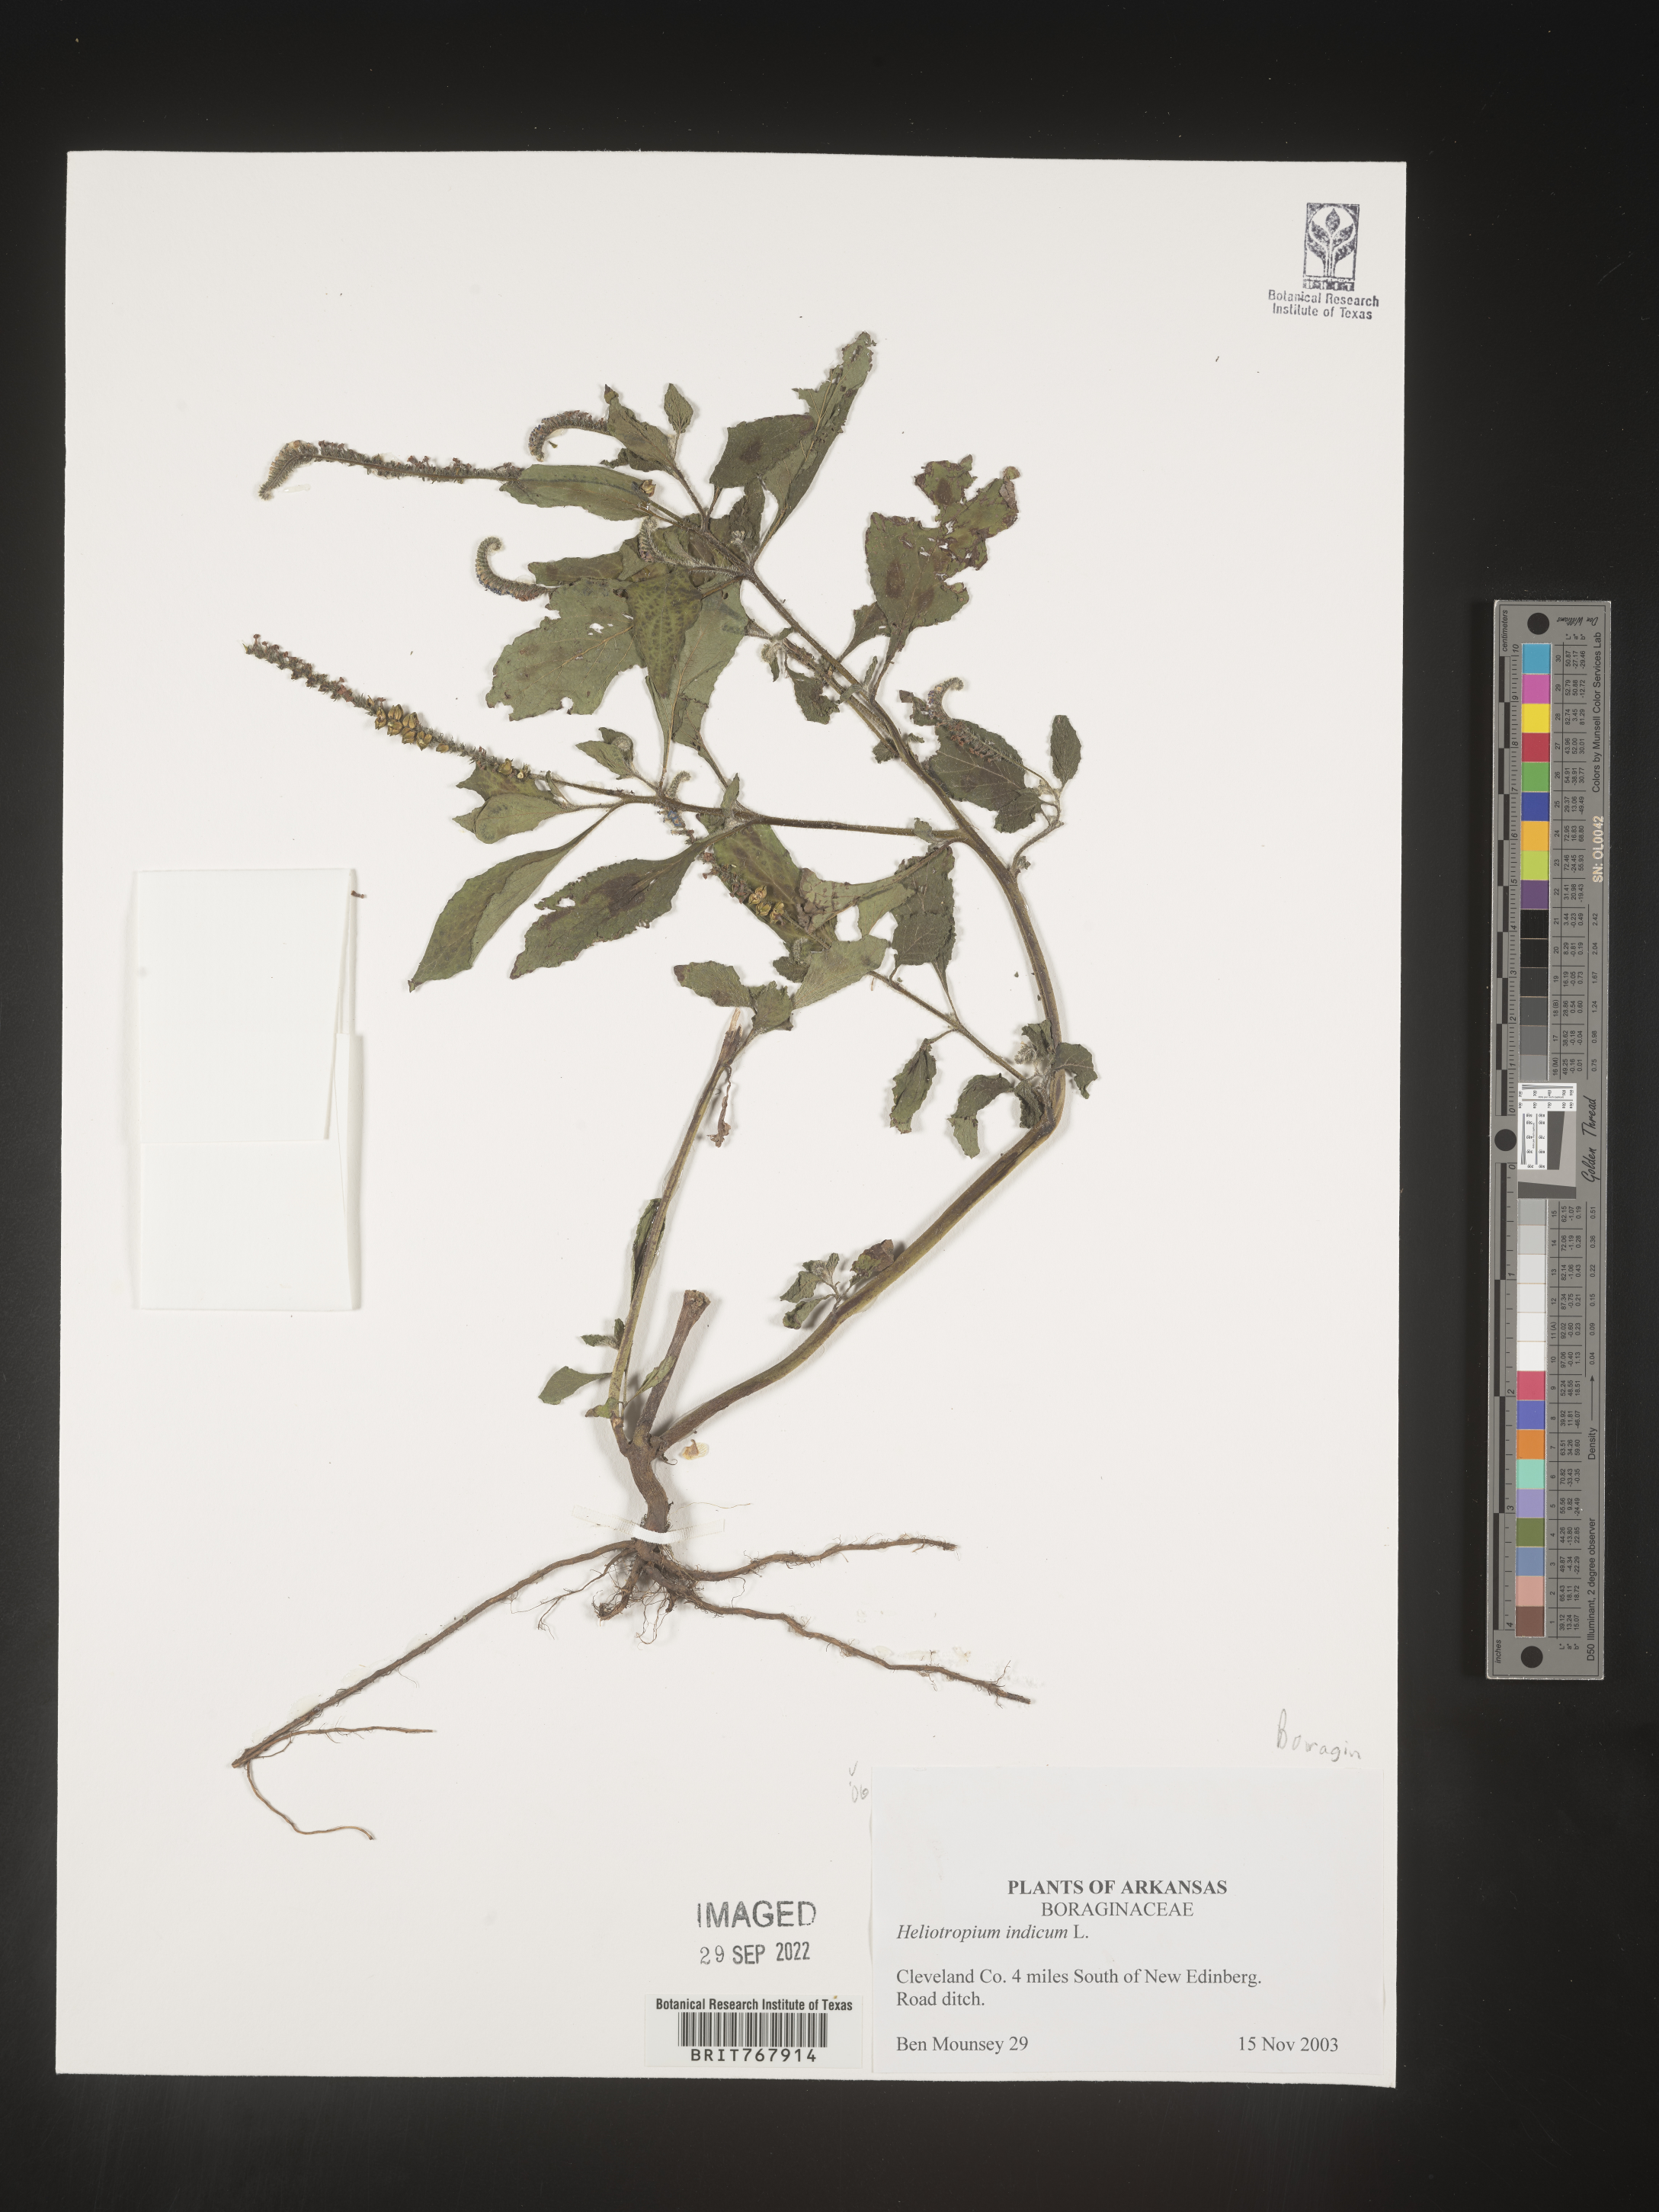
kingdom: Plantae
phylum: Tracheophyta
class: Magnoliopsida
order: Boraginales
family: Heliotropiaceae
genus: Heliotropium
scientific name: Heliotropium indicum
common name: Indian heliotrope
